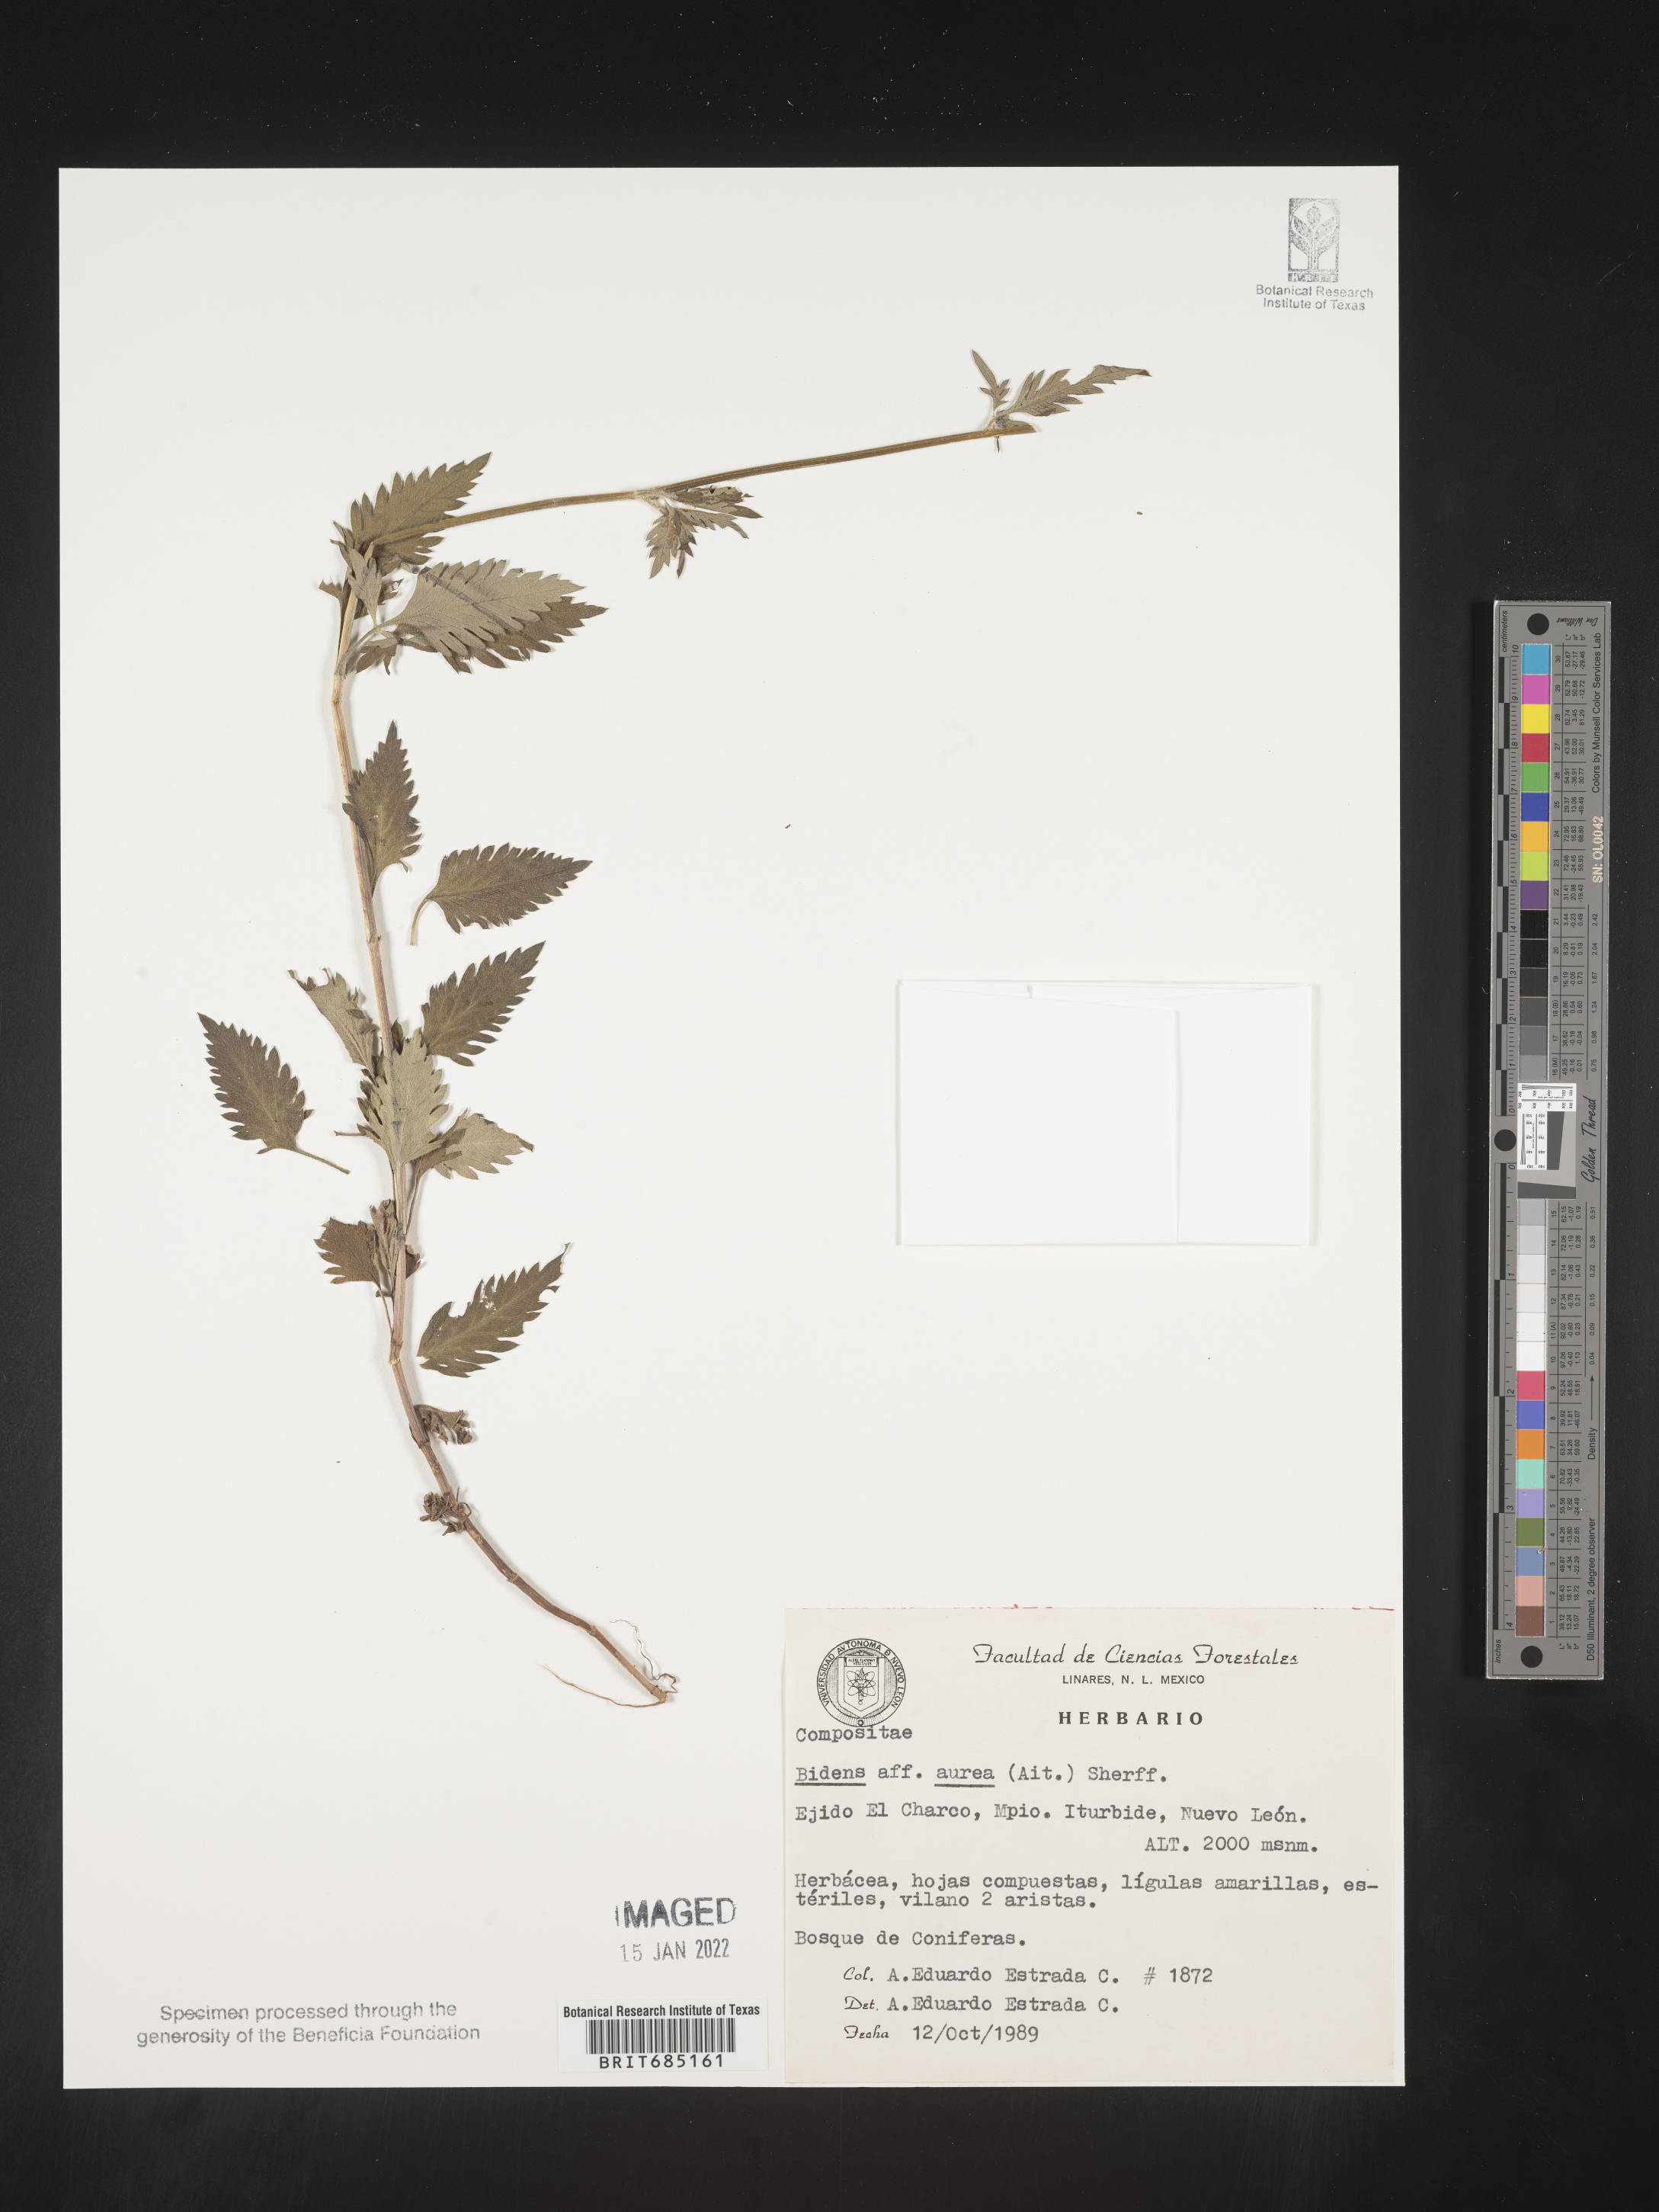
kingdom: Plantae
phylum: Tracheophyta
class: Magnoliopsida
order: Asterales
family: Asteraceae
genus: Bidens
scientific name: Bidens
